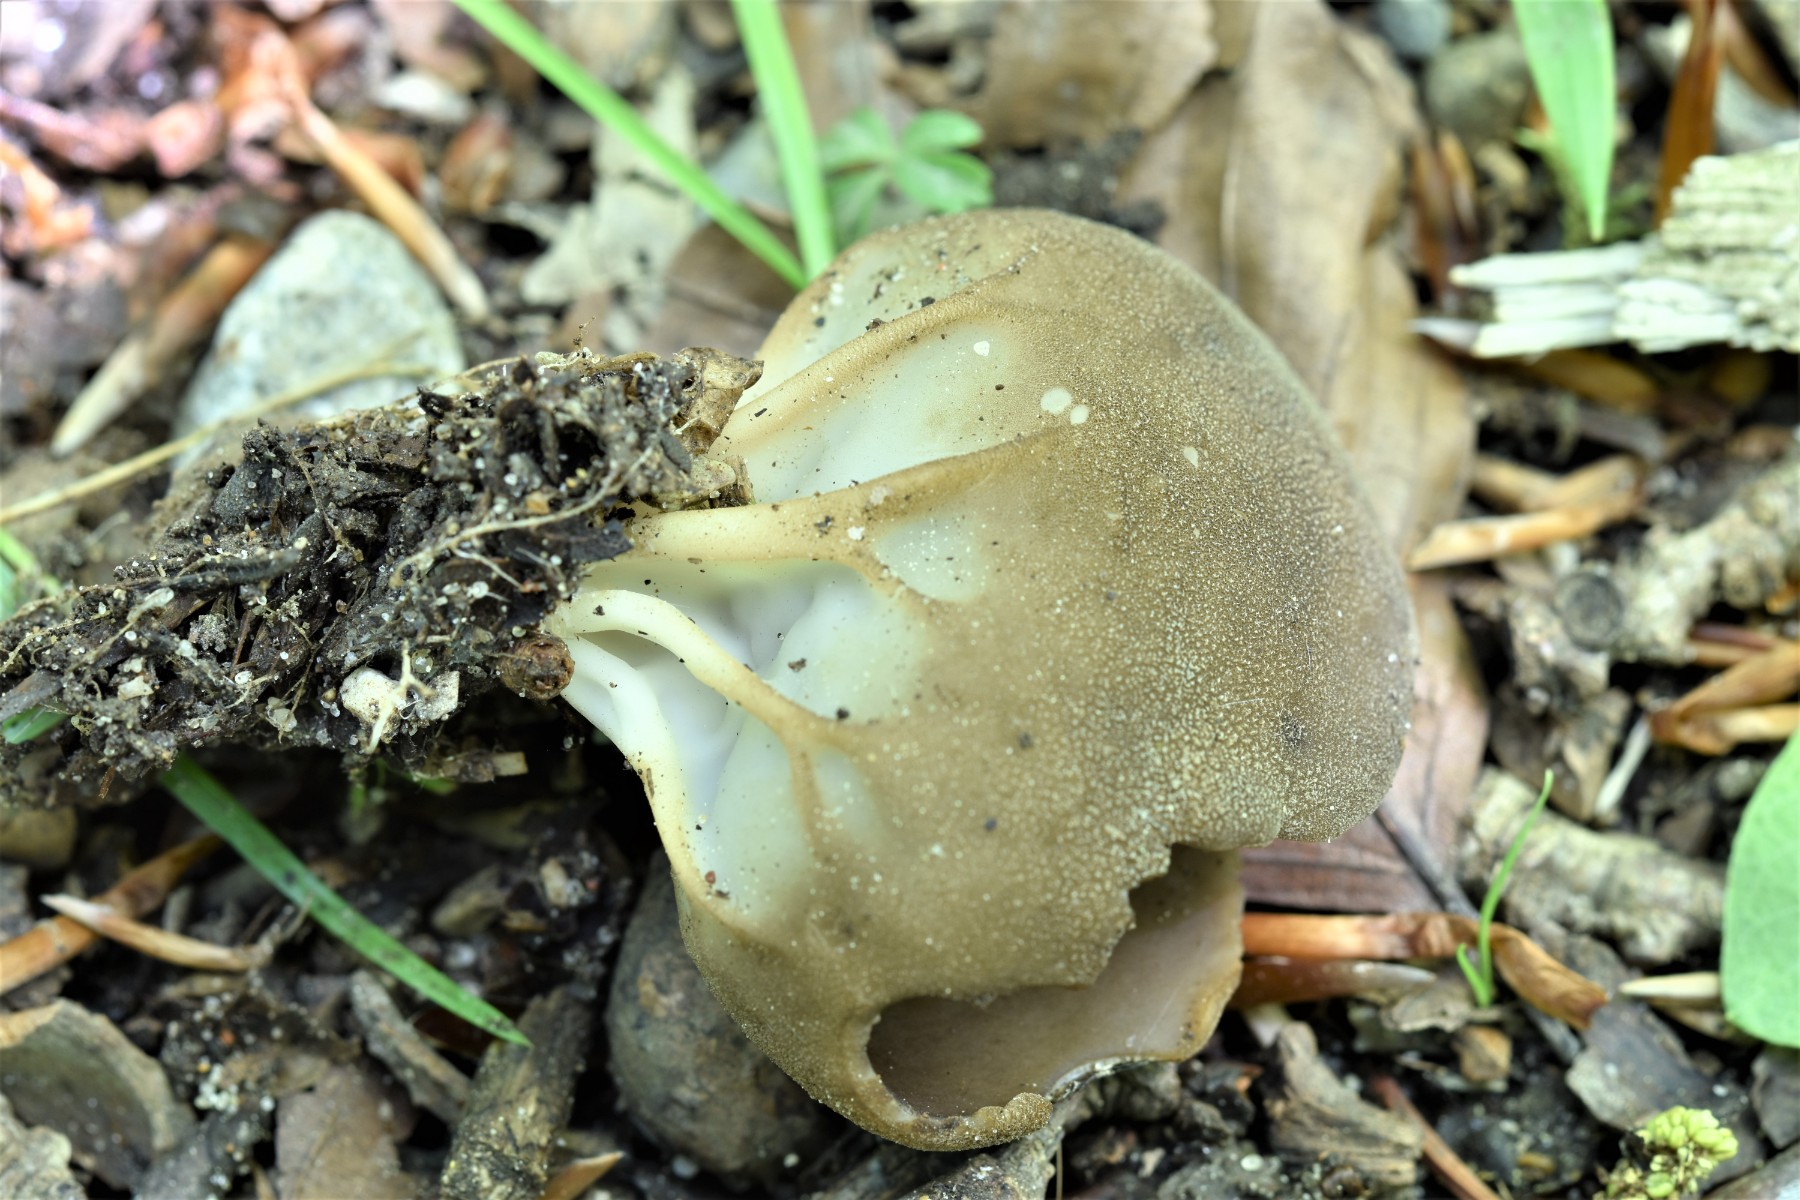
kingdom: Fungi
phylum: Ascomycota
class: Pezizomycetes
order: Pezizales
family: Helvellaceae
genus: Helvella
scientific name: Helvella acetabulum
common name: pokal-foldhat
